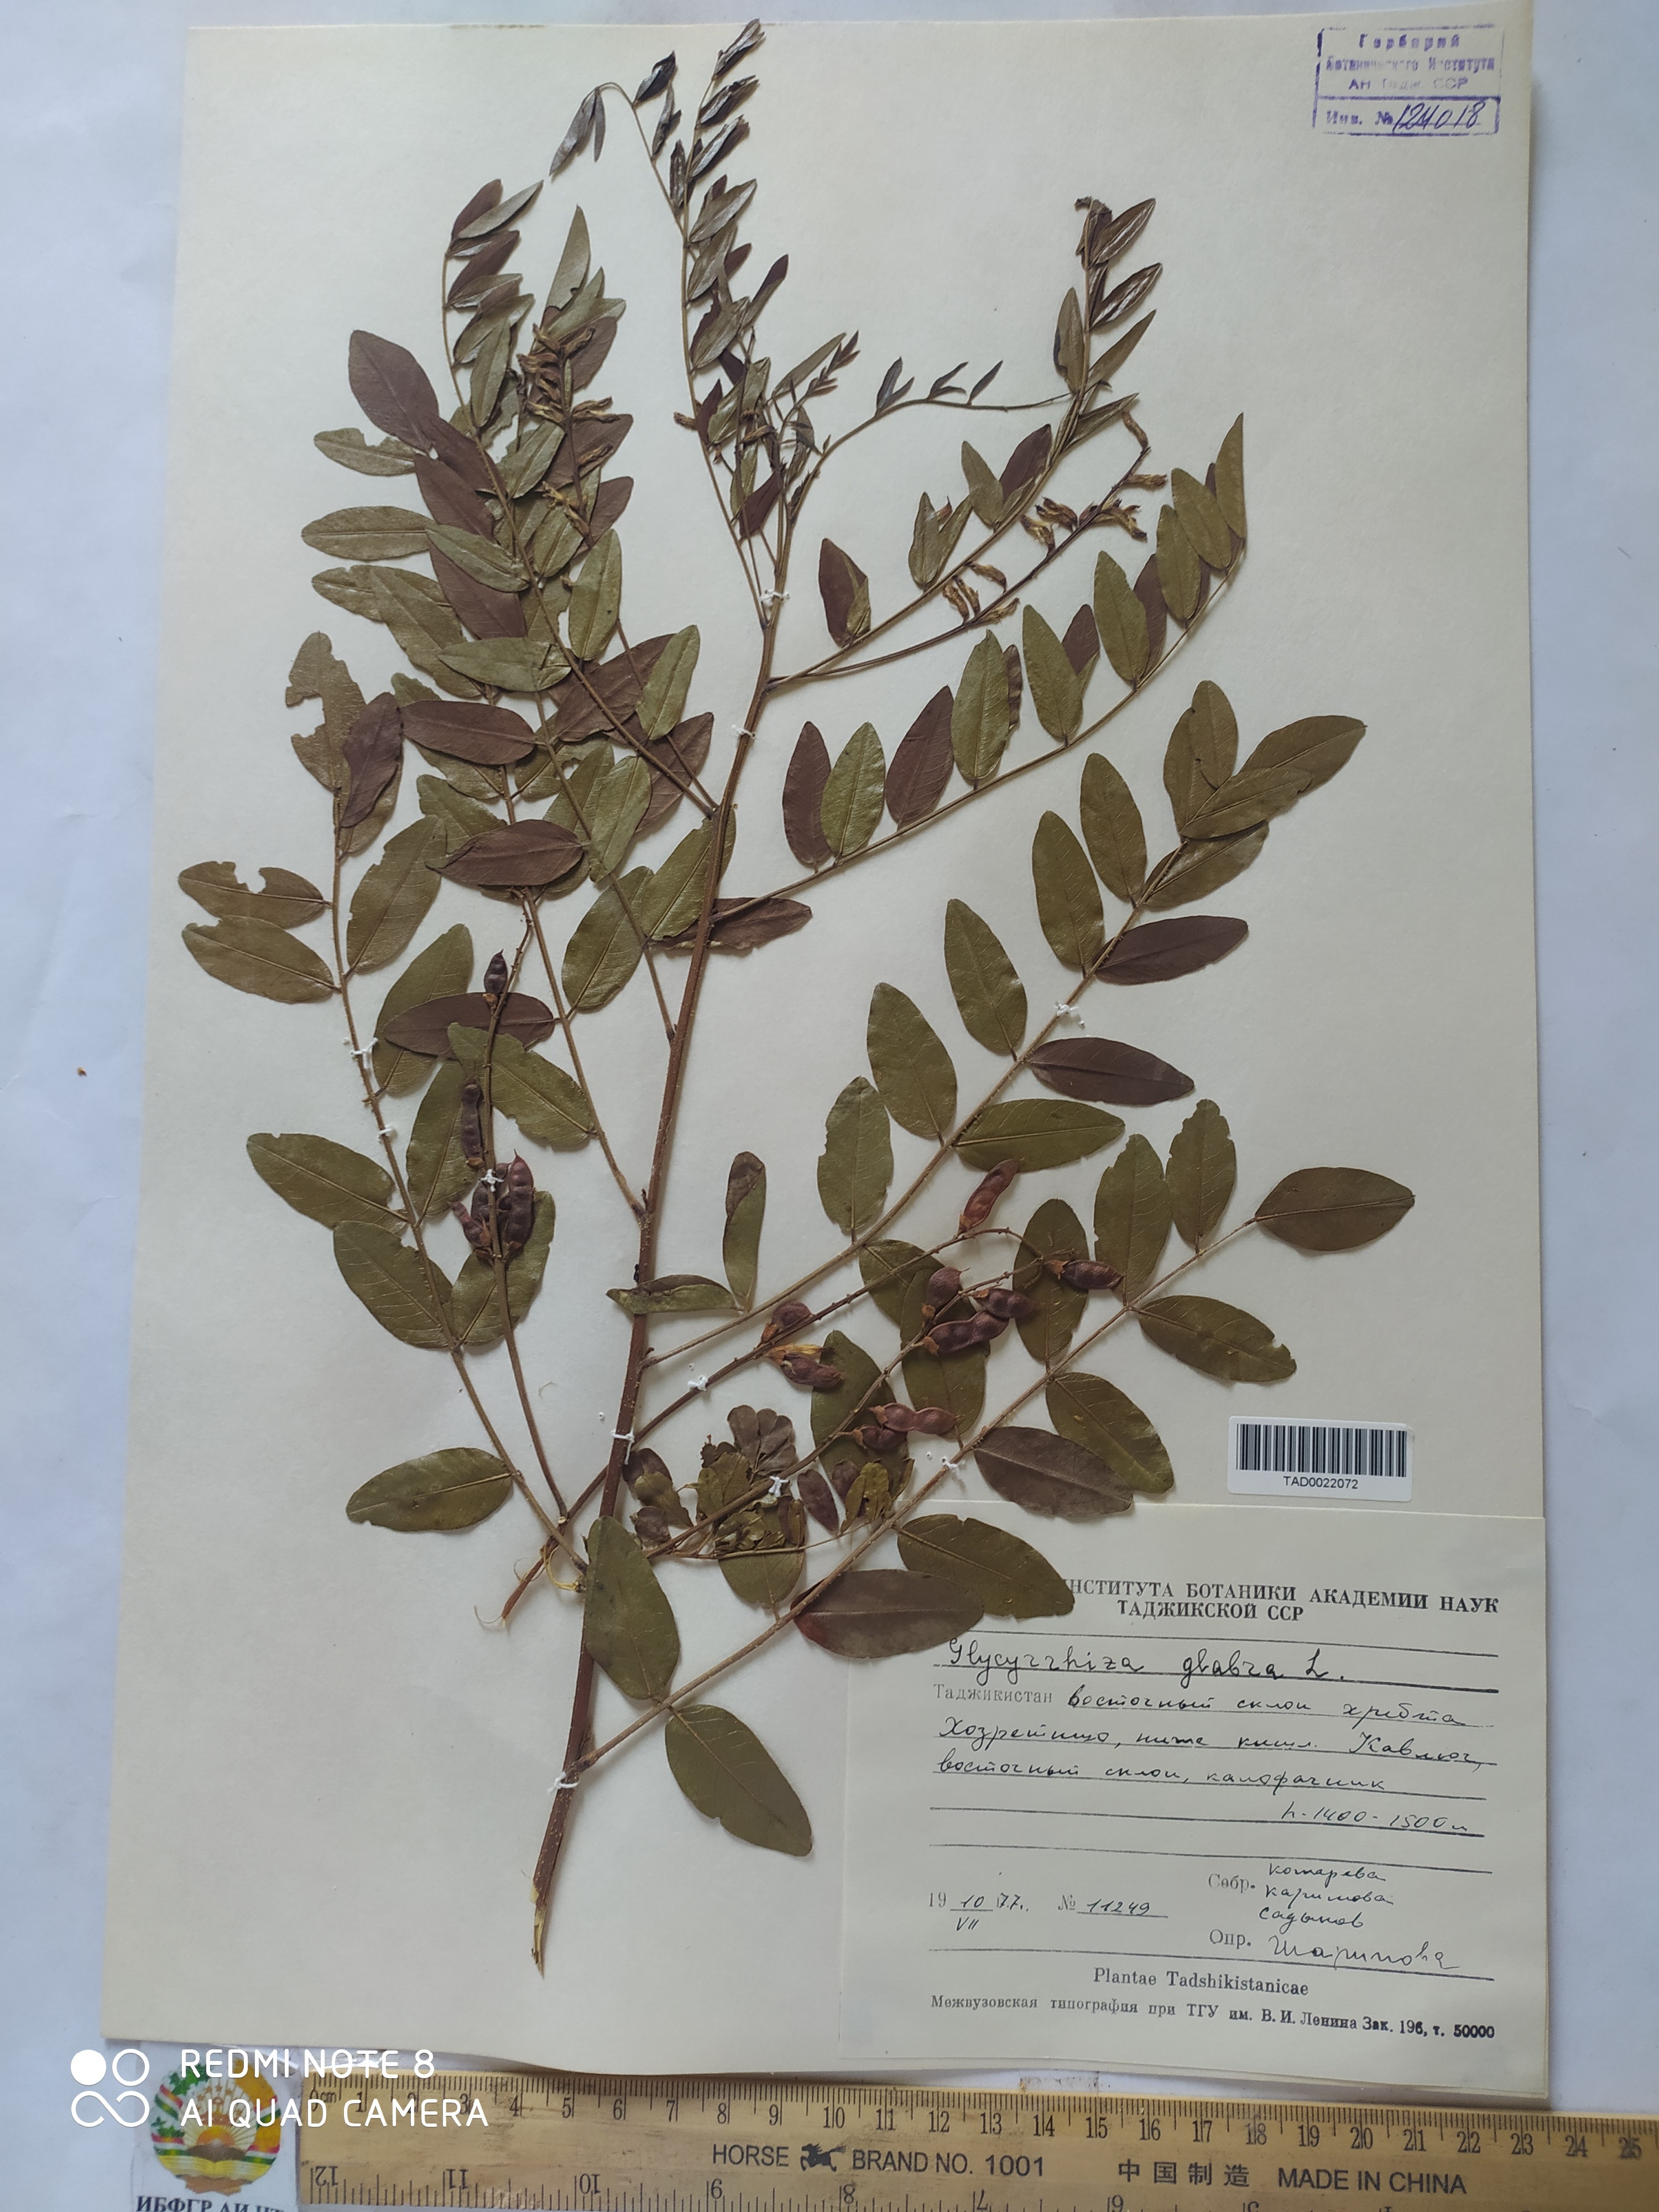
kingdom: Plantae
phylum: Tracheophyta
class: Magnoliopsida
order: Fabales
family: Fabaceae
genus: Glycyrrhiza
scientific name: Glycyrrhiza glabra
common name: Liquorice
